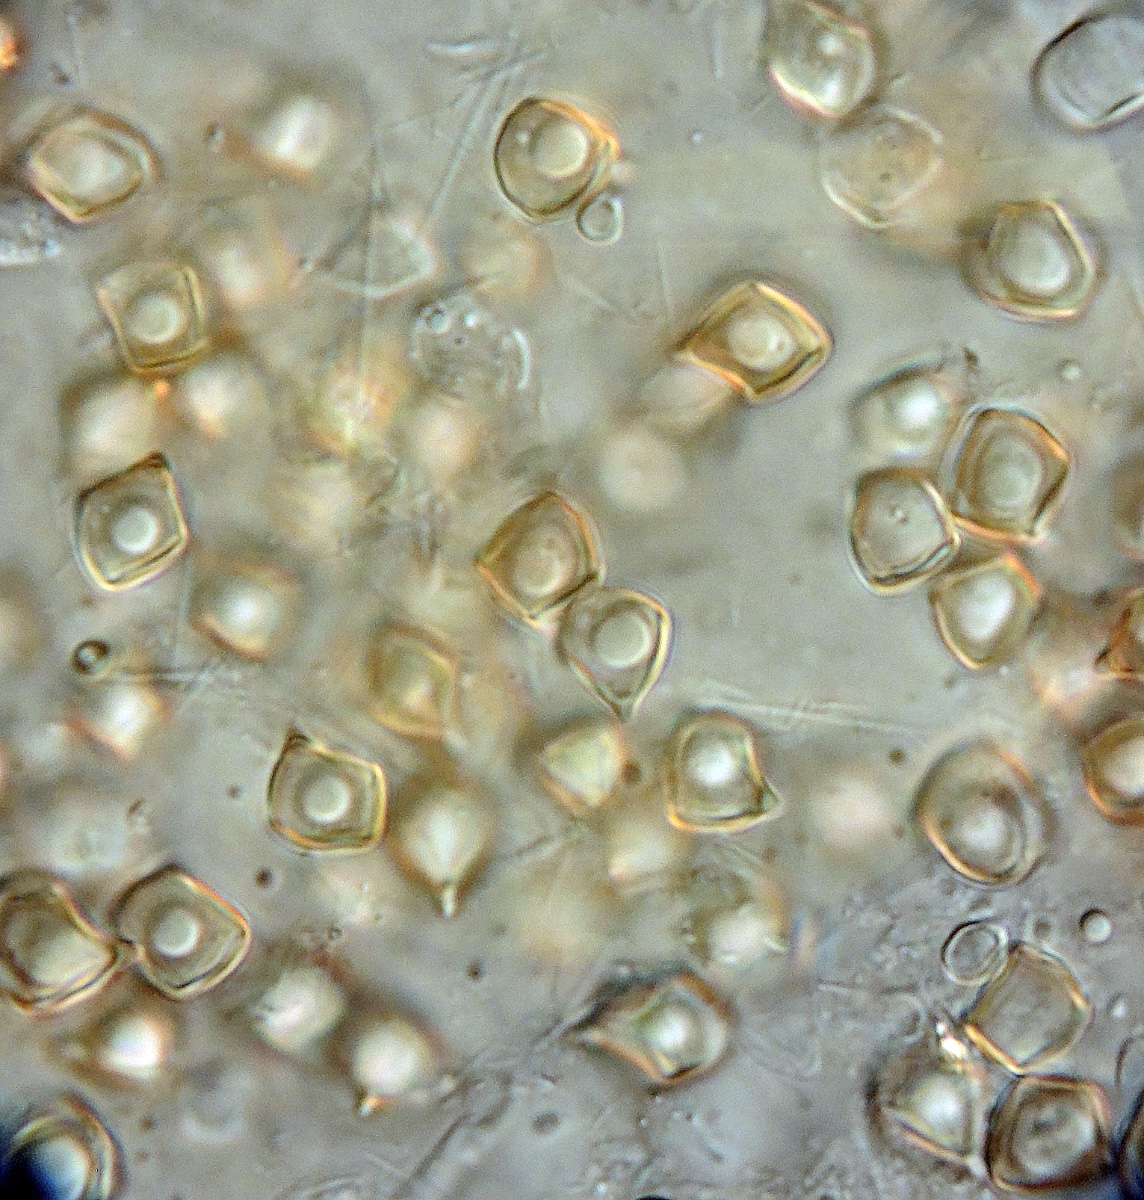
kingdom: Fungi
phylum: Basidiomycota
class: Agaricomycetes
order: Agaricales
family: Entolomataceae
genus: Entoloma
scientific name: Entoloma
